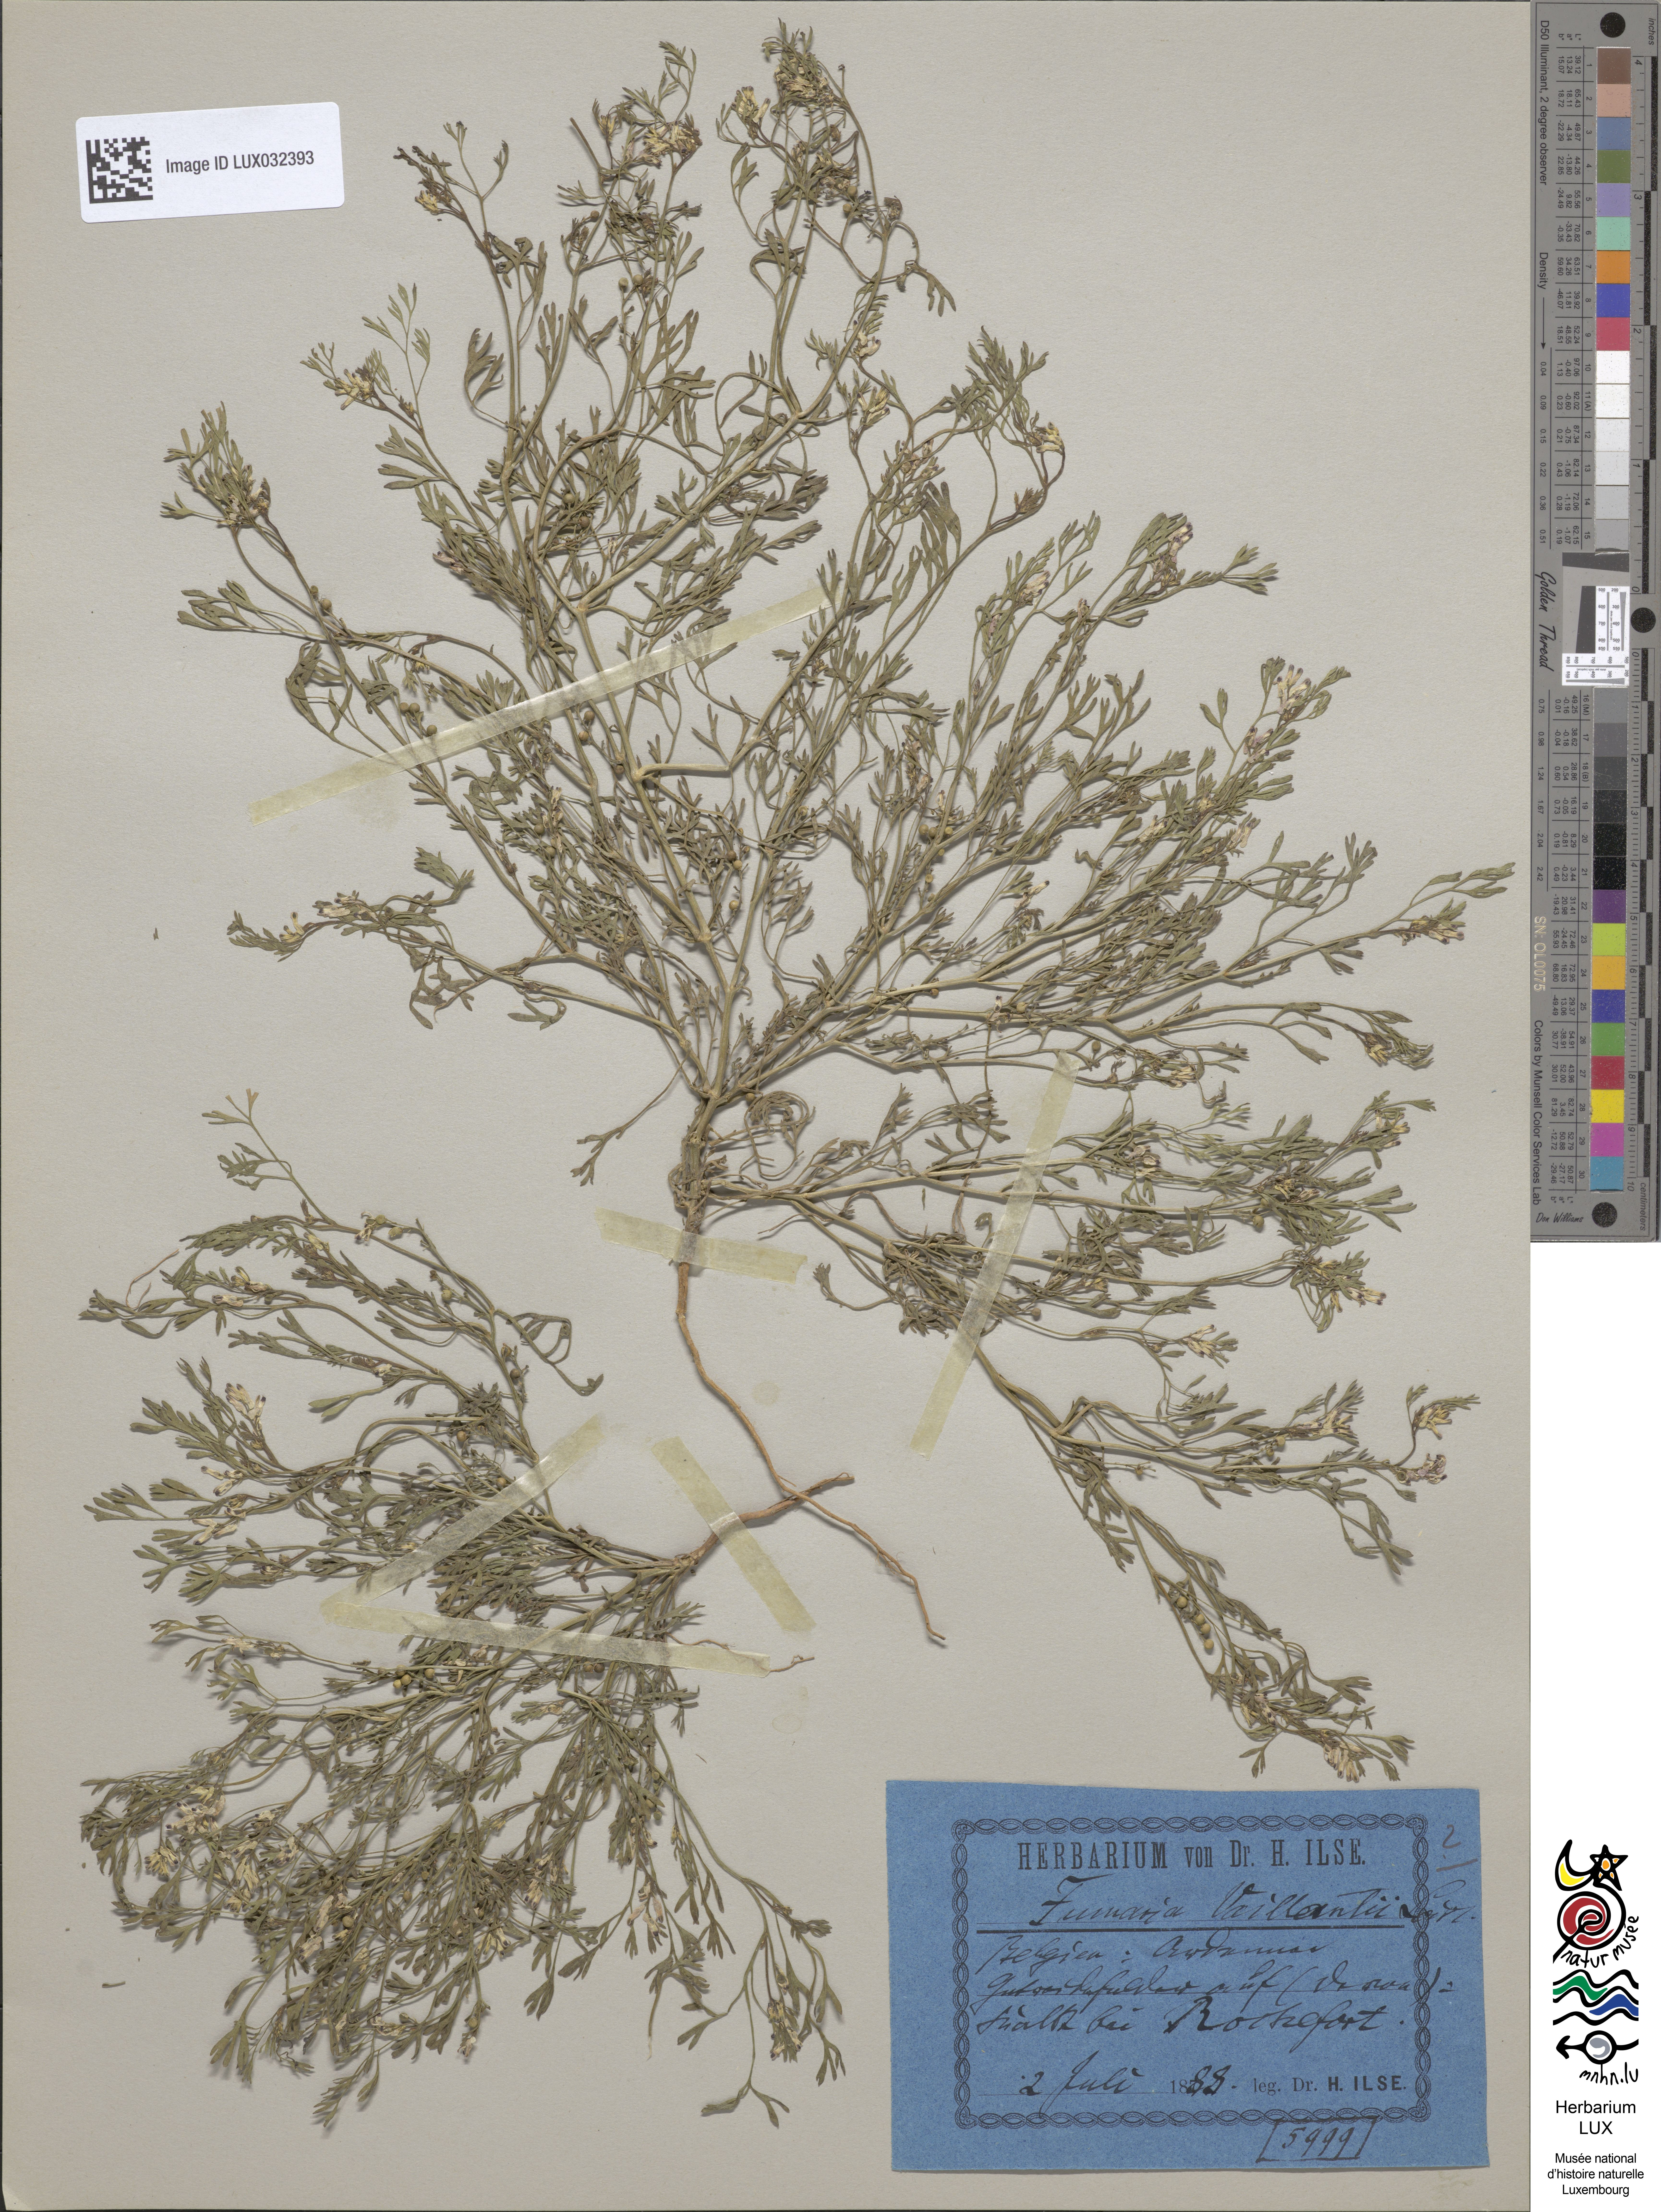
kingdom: Plantae
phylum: Tracheophyta
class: Magnoliopsida
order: Ranunculales
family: Papaveraceae
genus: Fumaria
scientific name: Fumaria vaillantii
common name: Few-flowered fumitory
